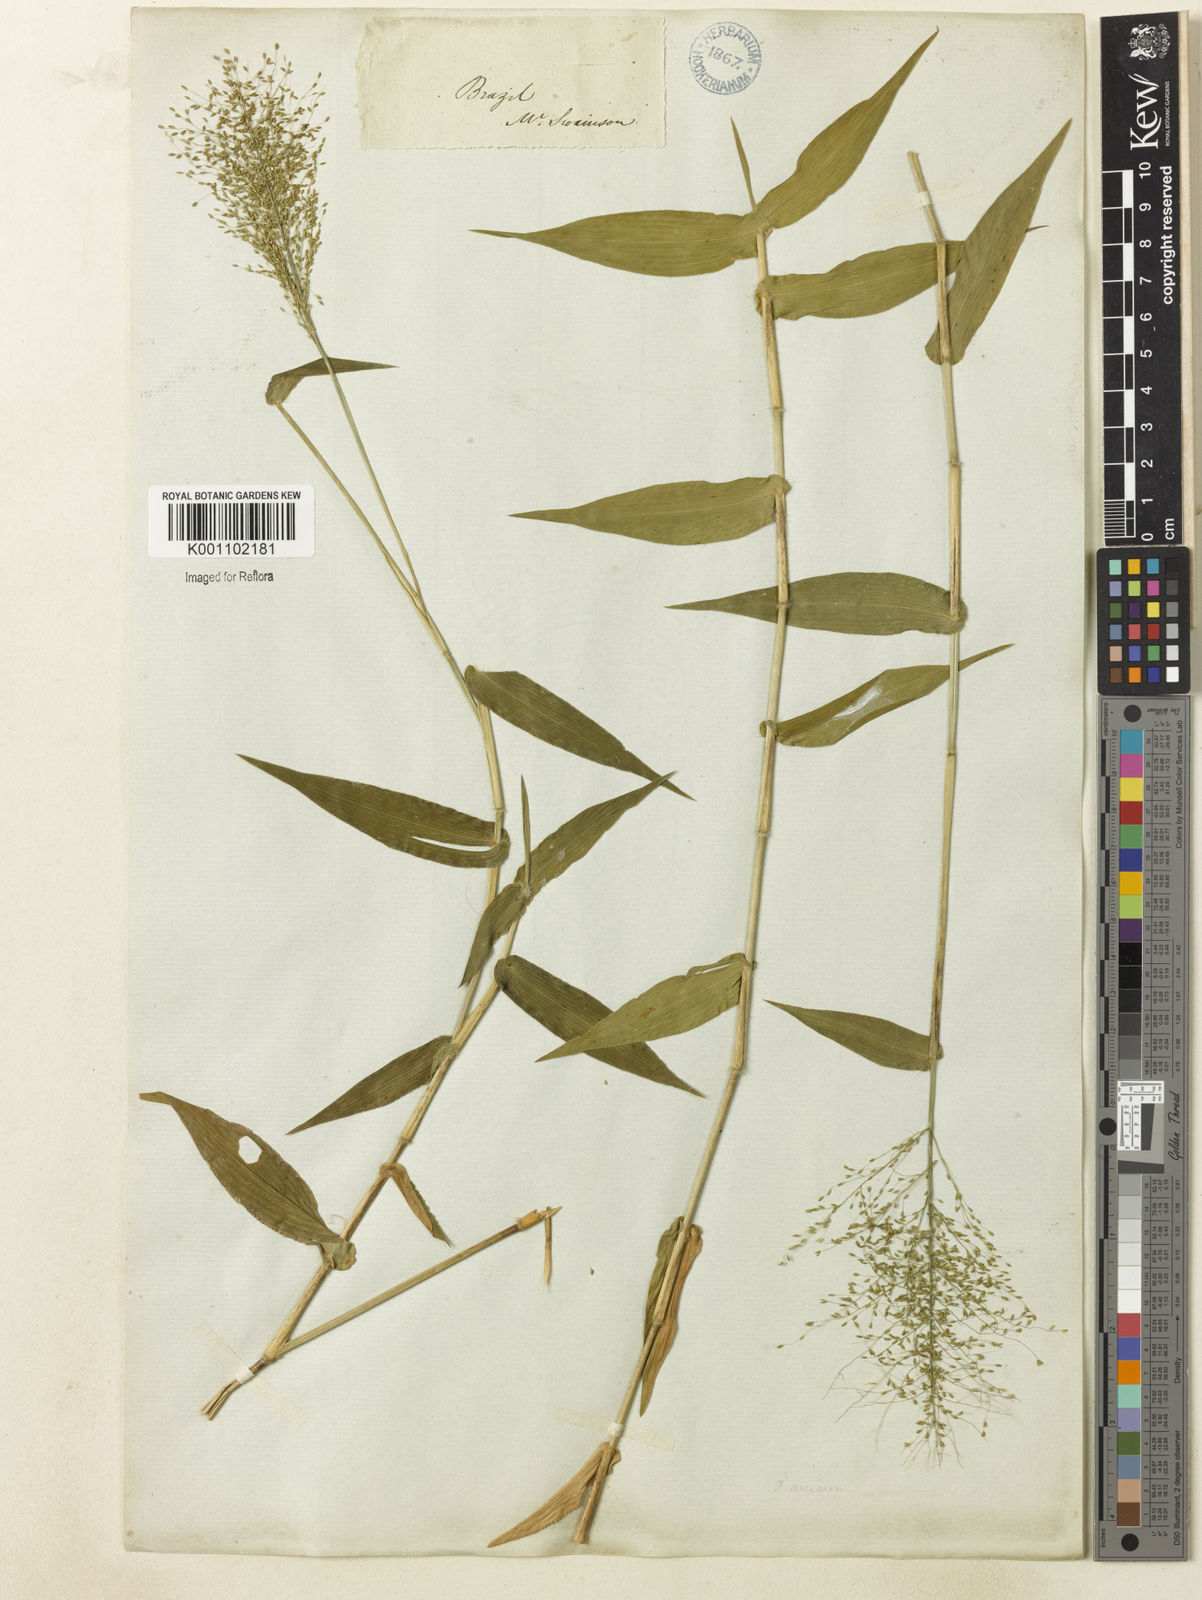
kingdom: Plantae
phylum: Tracheophyta
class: Liliopsida
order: Poales
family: Poaceae
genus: Dichanthelium
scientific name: Dichanthelium sciurotoides
